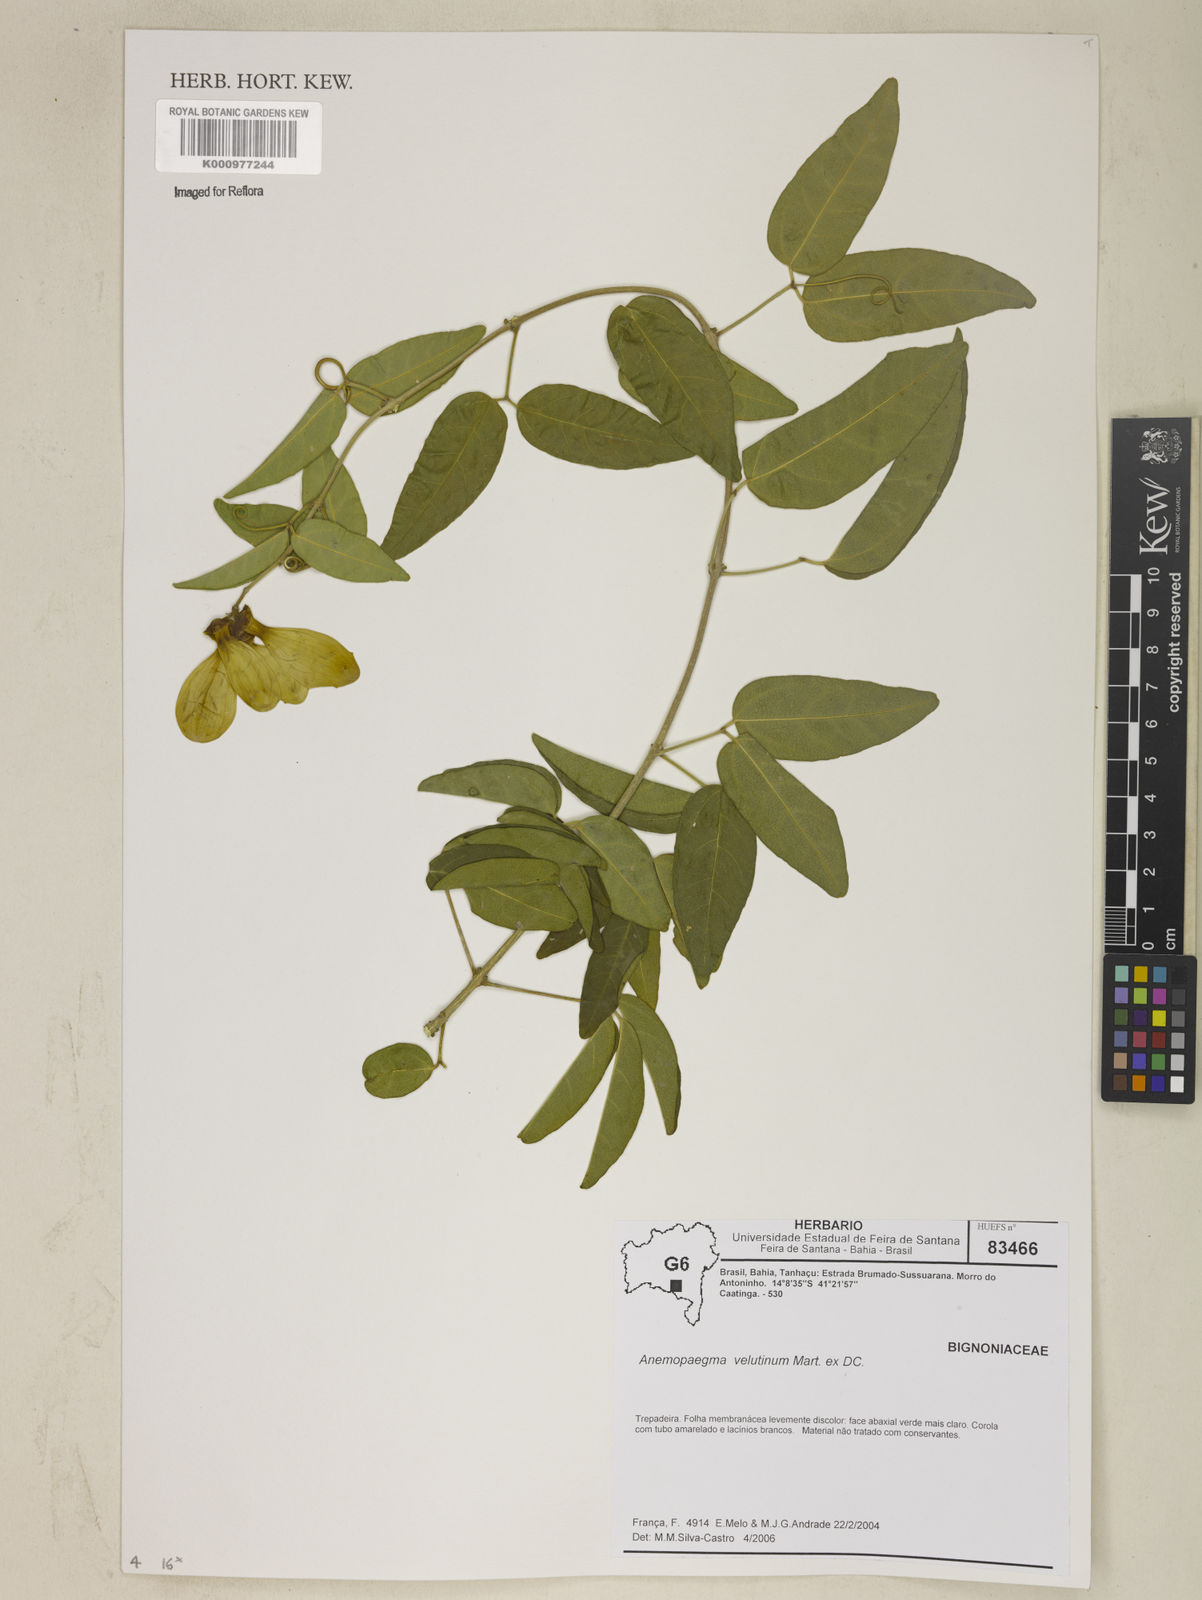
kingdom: Plantae
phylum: Tracheophyta
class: Magnoliopsida
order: Lamiales
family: Bignoniaceae
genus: Anemopaegma
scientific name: Anemopaegma velutinum
